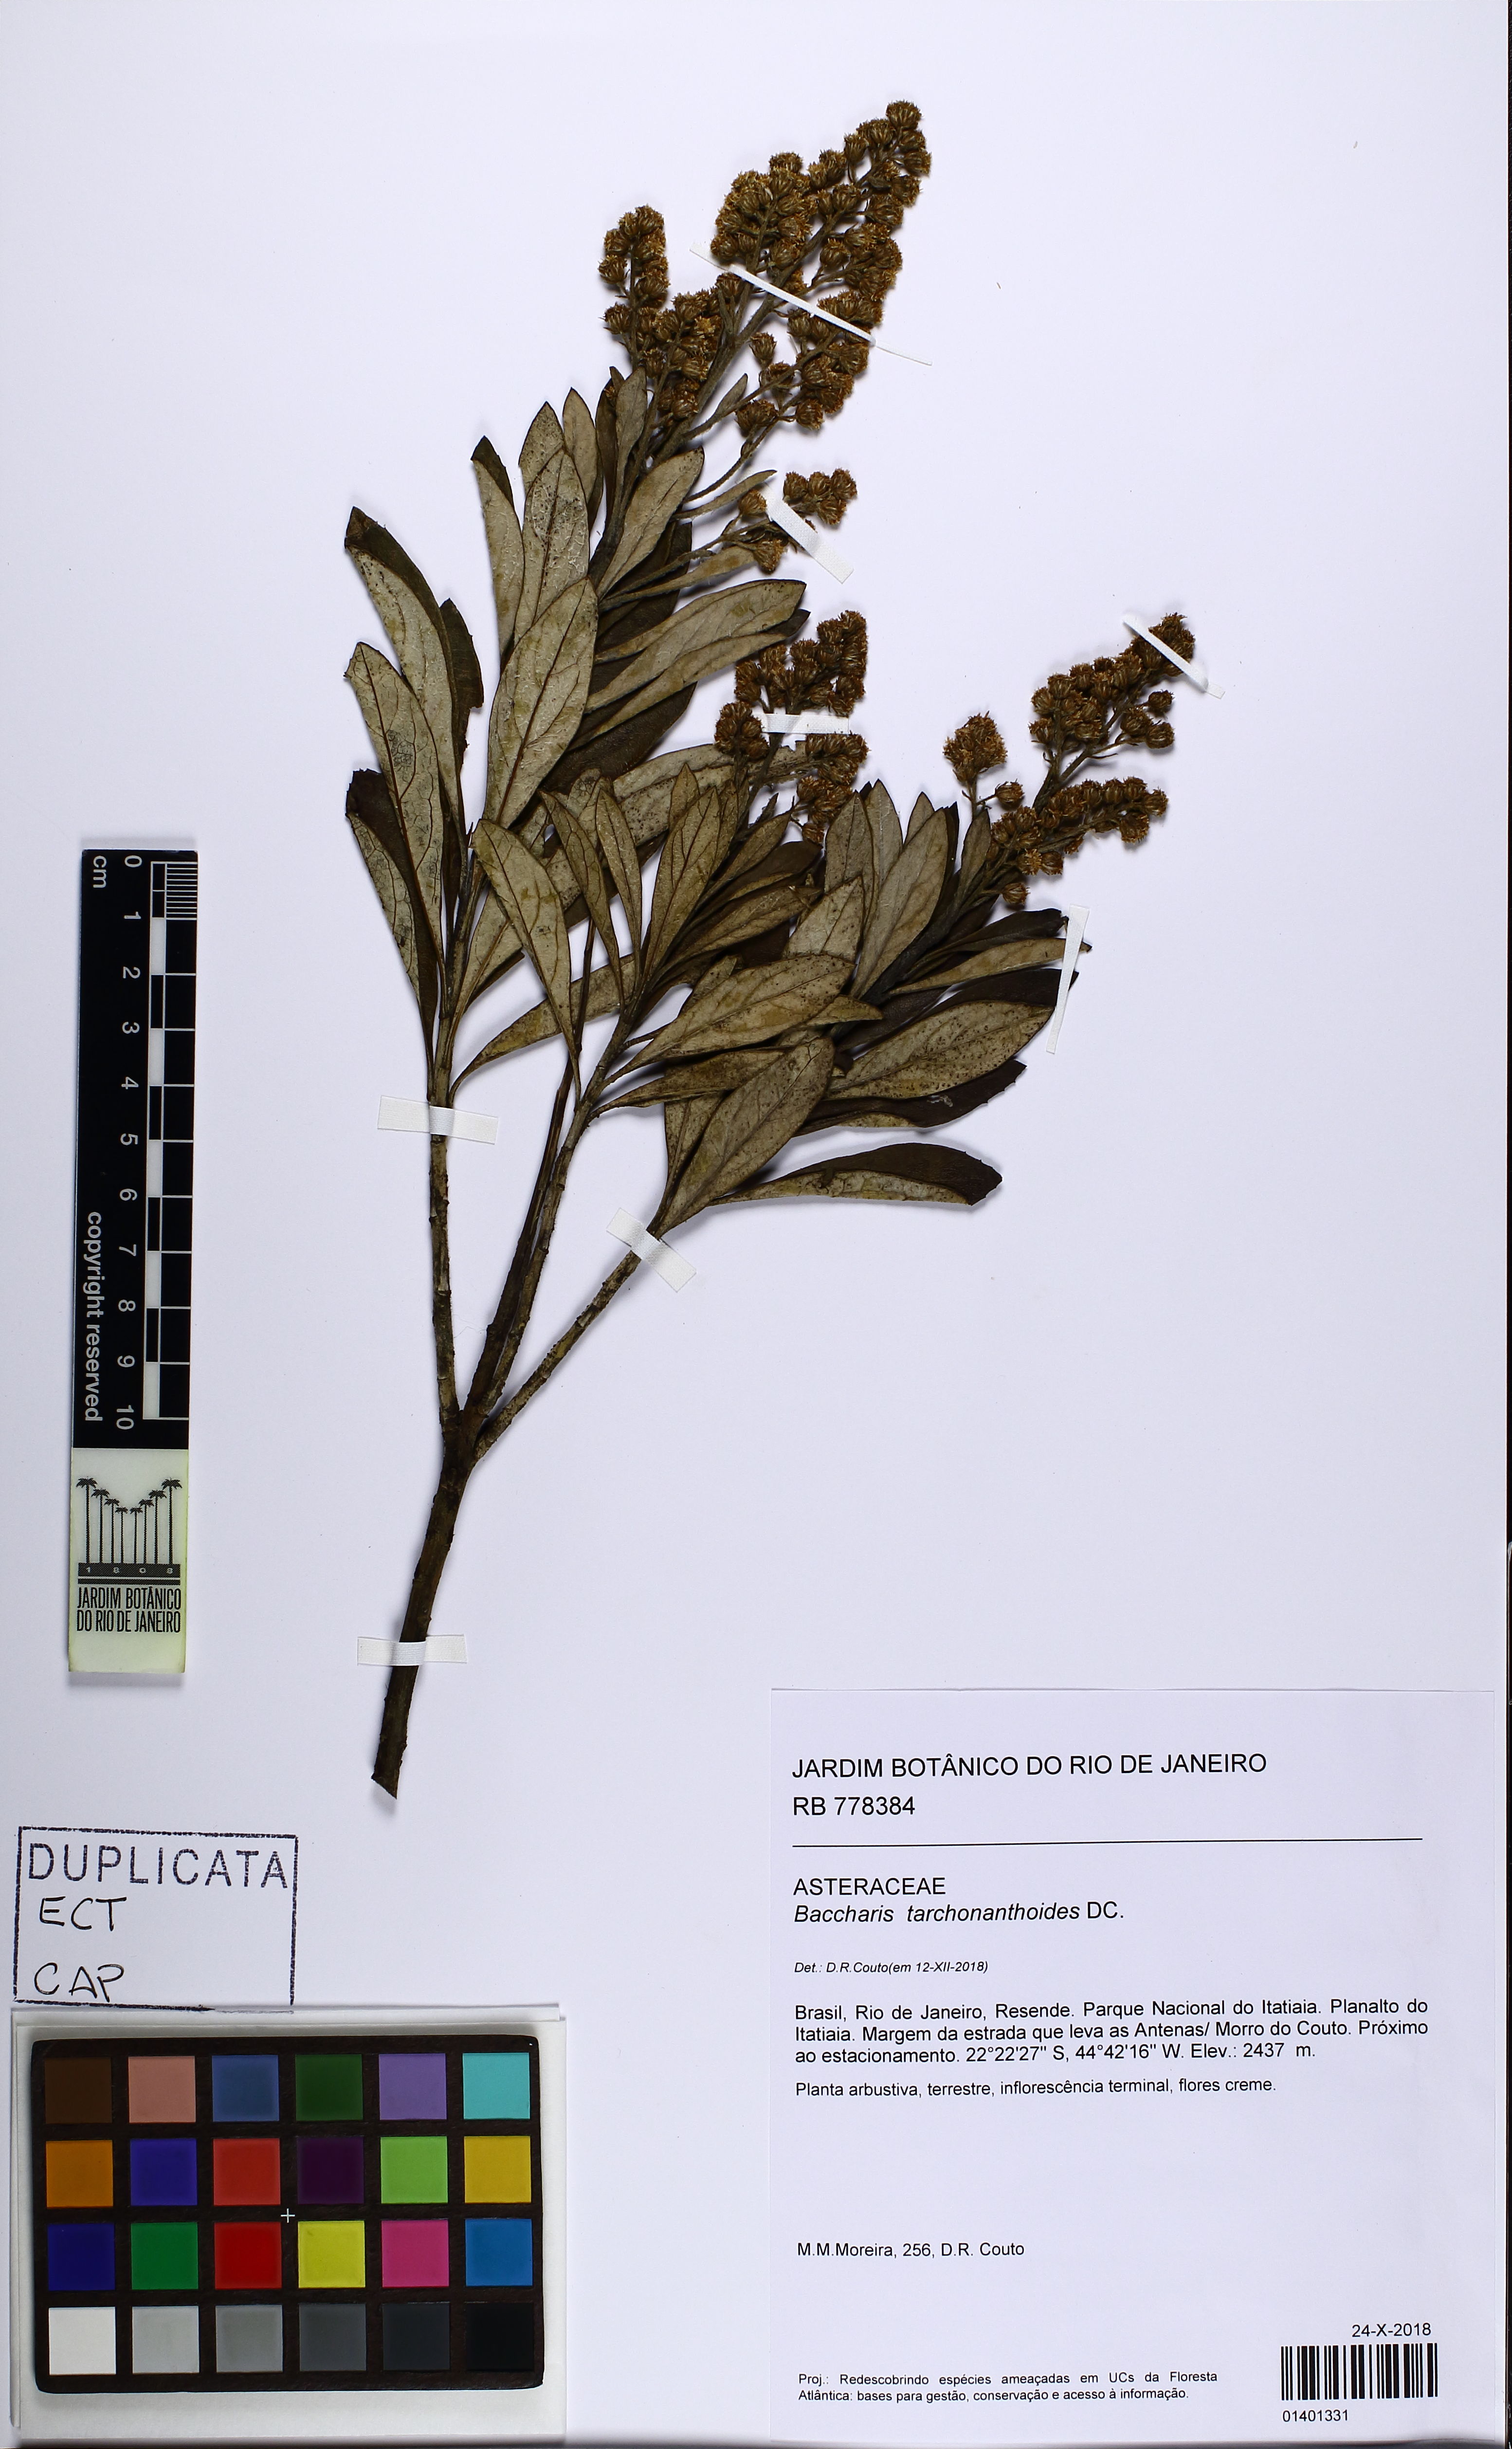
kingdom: Plantae
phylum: Tracheophyta
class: Magnoliopsida
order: Asterales
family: Asteraceae
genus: Baccharis
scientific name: Baccharis tarchonanthoides
